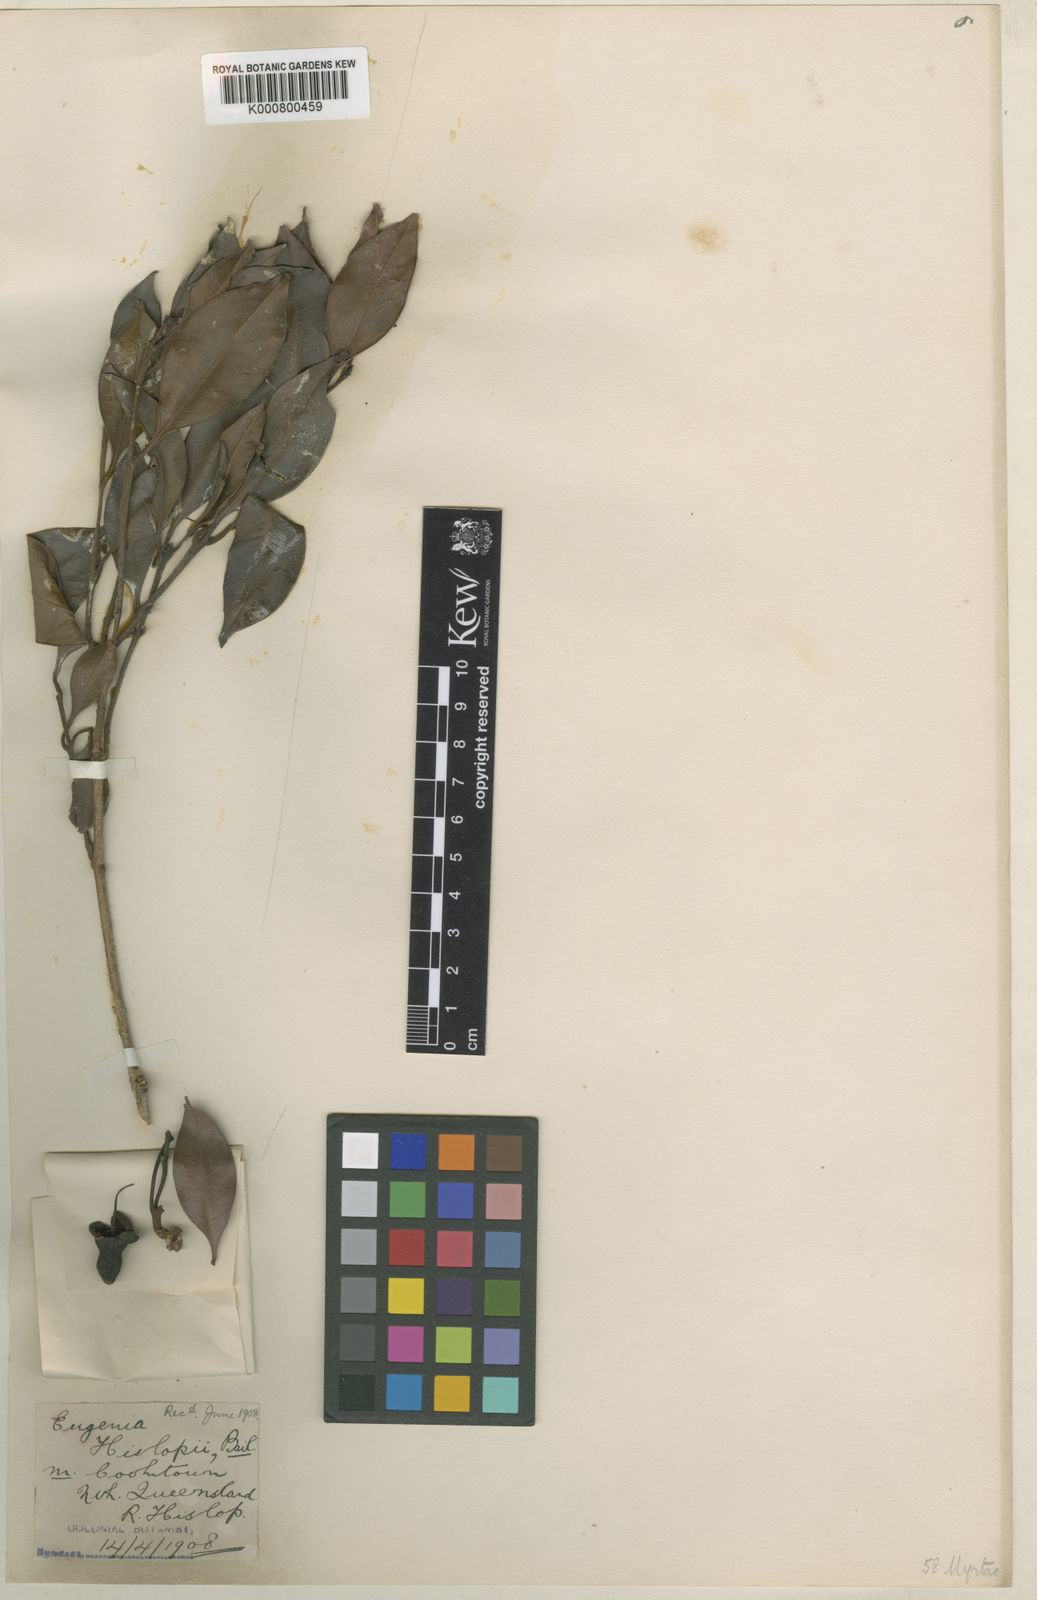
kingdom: Plantae
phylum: Tracheophyta
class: Magnoliopsida
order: Myrtales
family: Myrtaceae
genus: Syzygium
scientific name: Syzygium cormiflorum
